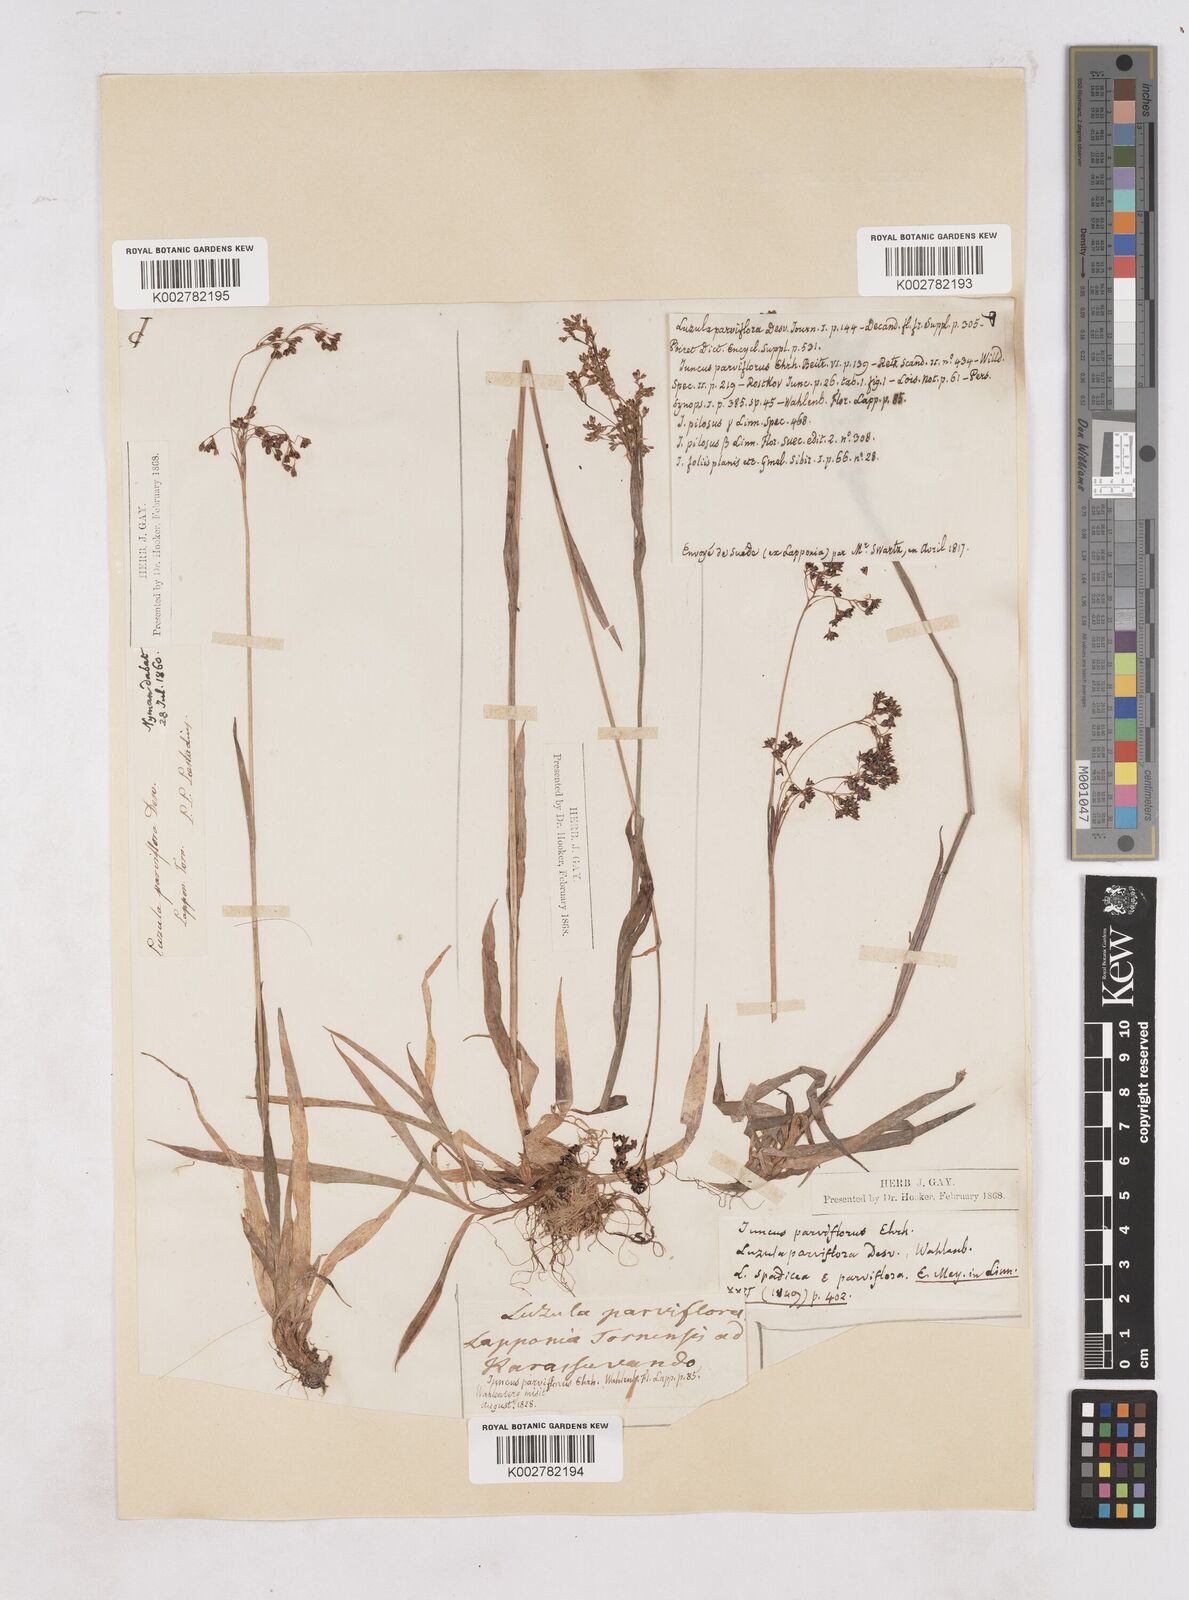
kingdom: Plantae
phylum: Tracheophyta
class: Liliopsida
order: Poales
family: Juncaceae
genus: Luzula
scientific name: Luzula parviflora
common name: Millet woodrush
